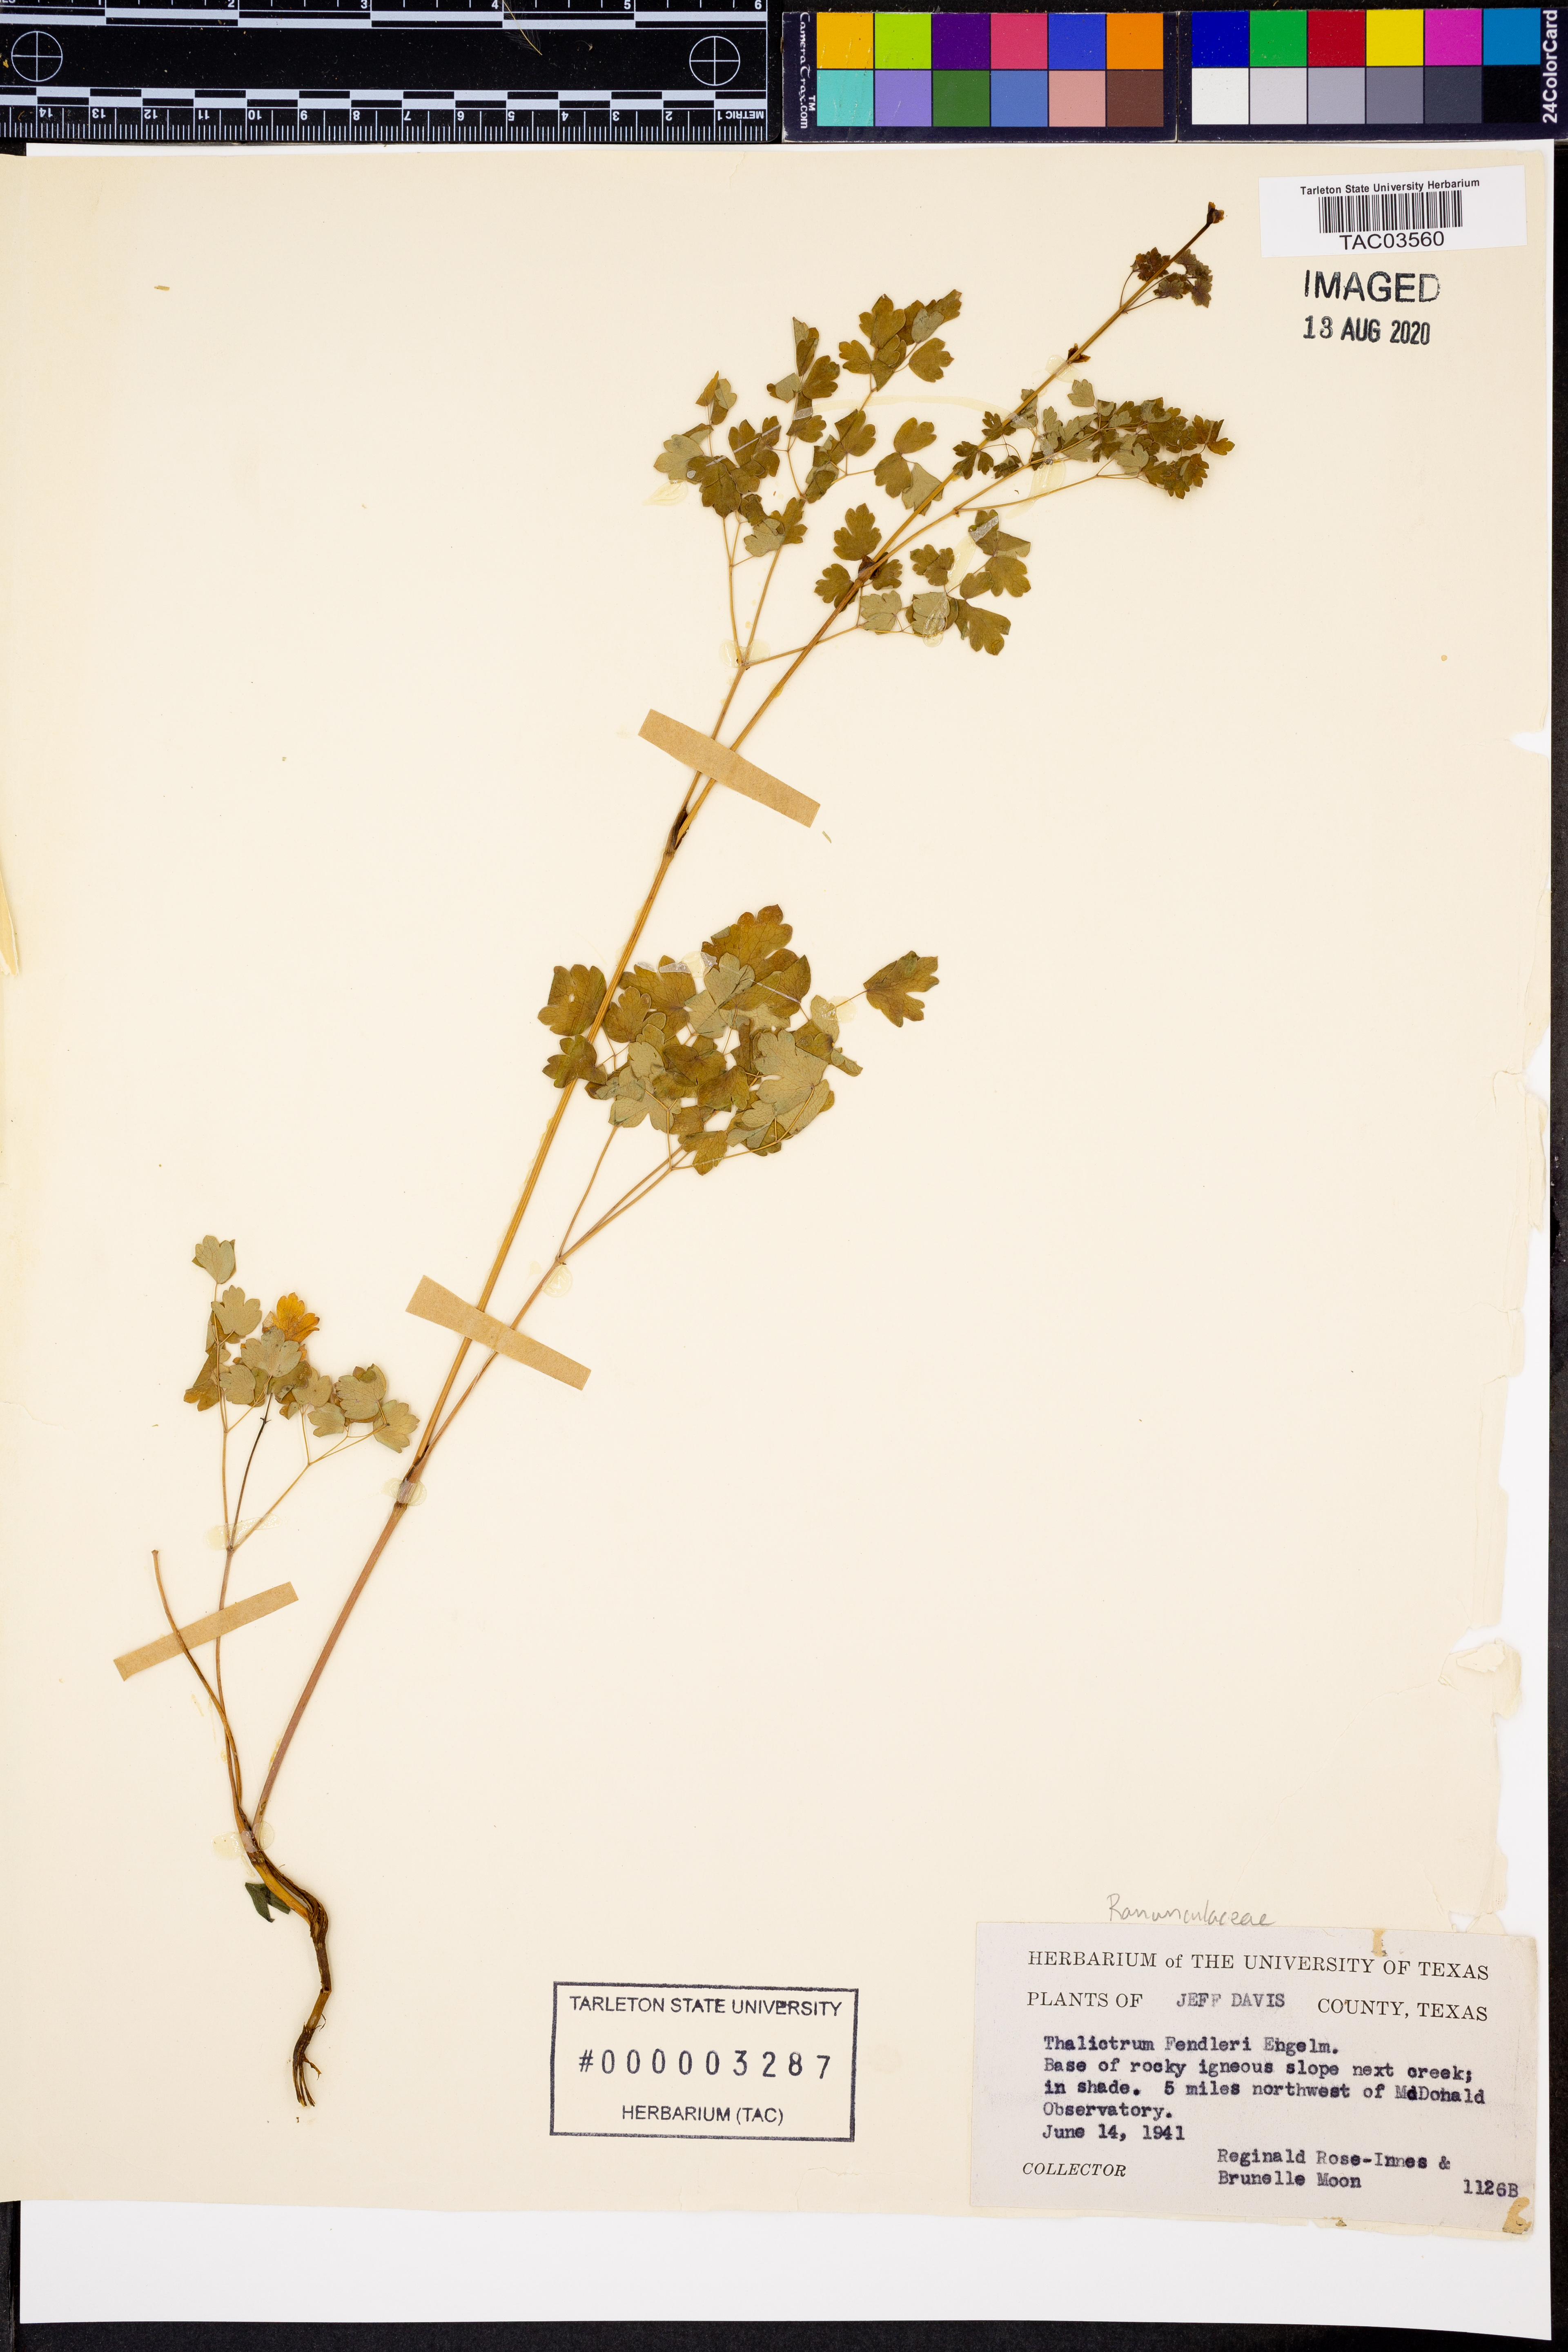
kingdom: Plantae
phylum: Tracheophyta
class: Magnoliopsida
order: Ranunculales
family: Ranunculaceae
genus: Thalictrum
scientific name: Thalictrum fendleri
